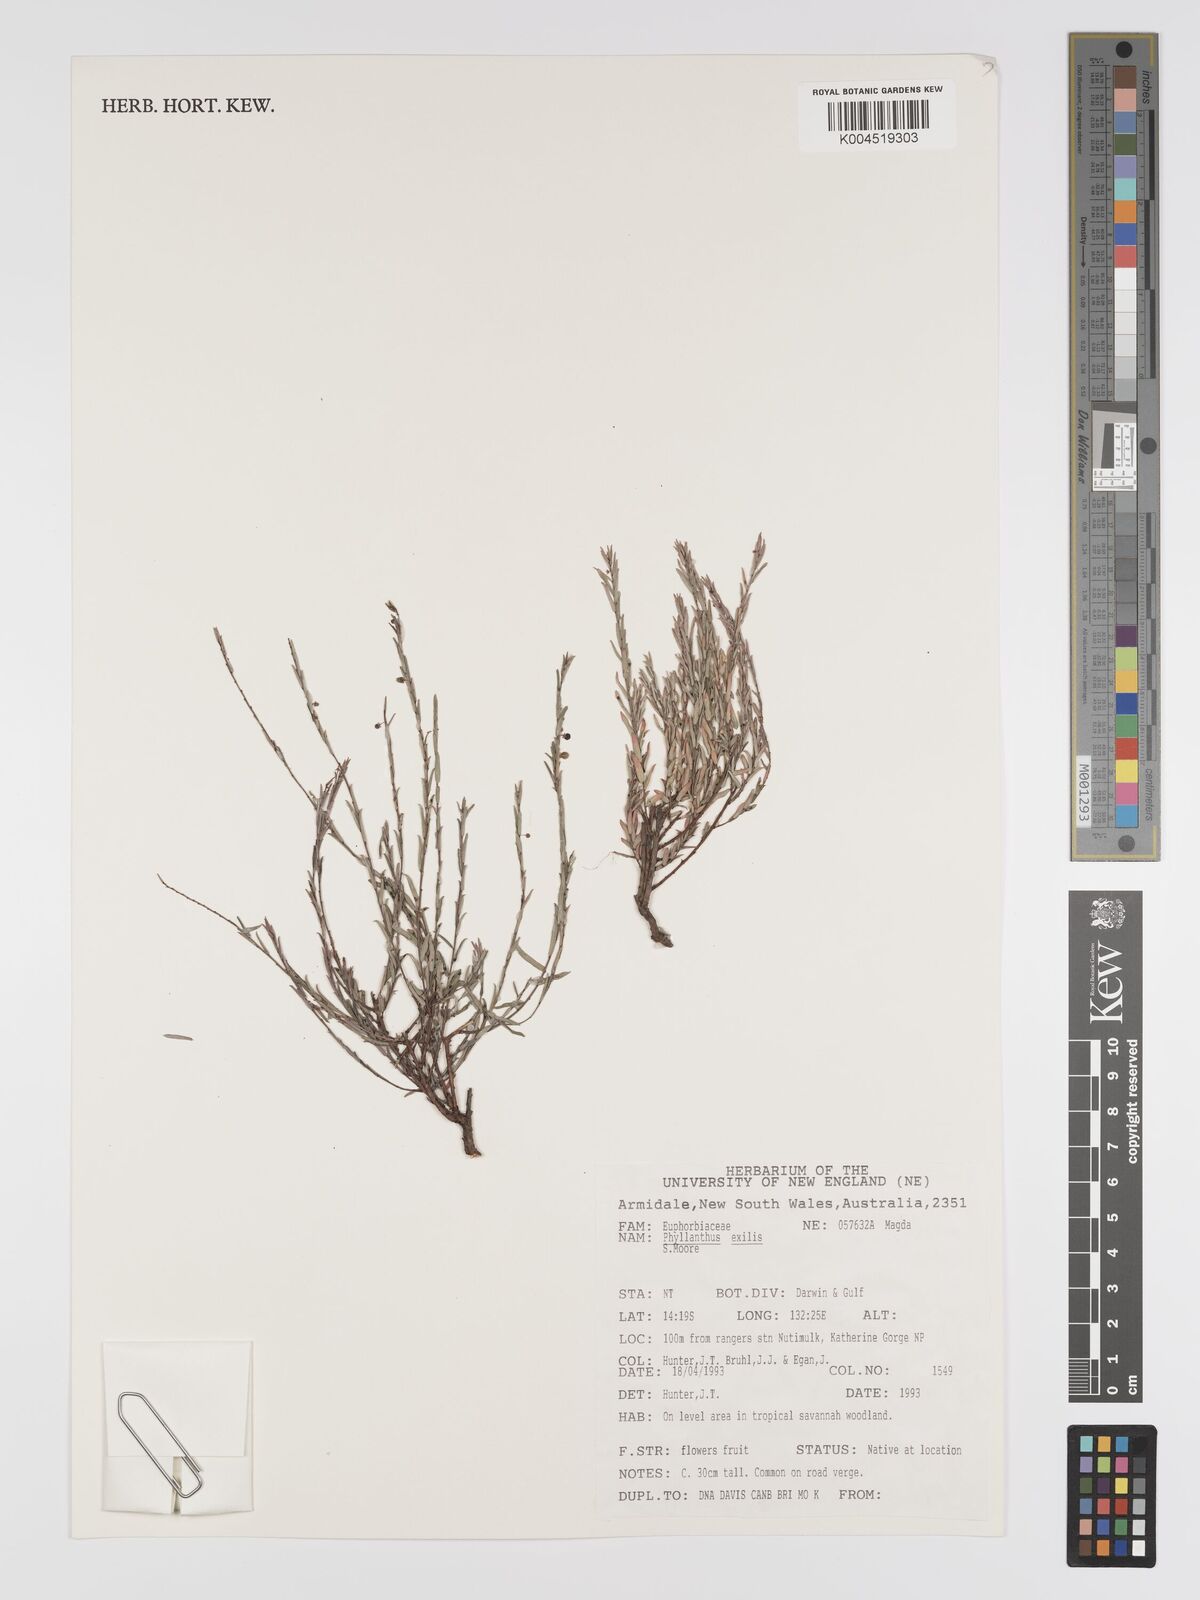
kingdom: Plantae
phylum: Tracheophyta
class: Magnoliopsida
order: Malpighiales
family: Phyllanthaceae
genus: Phyllanthus
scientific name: Phyllanthus exilis
